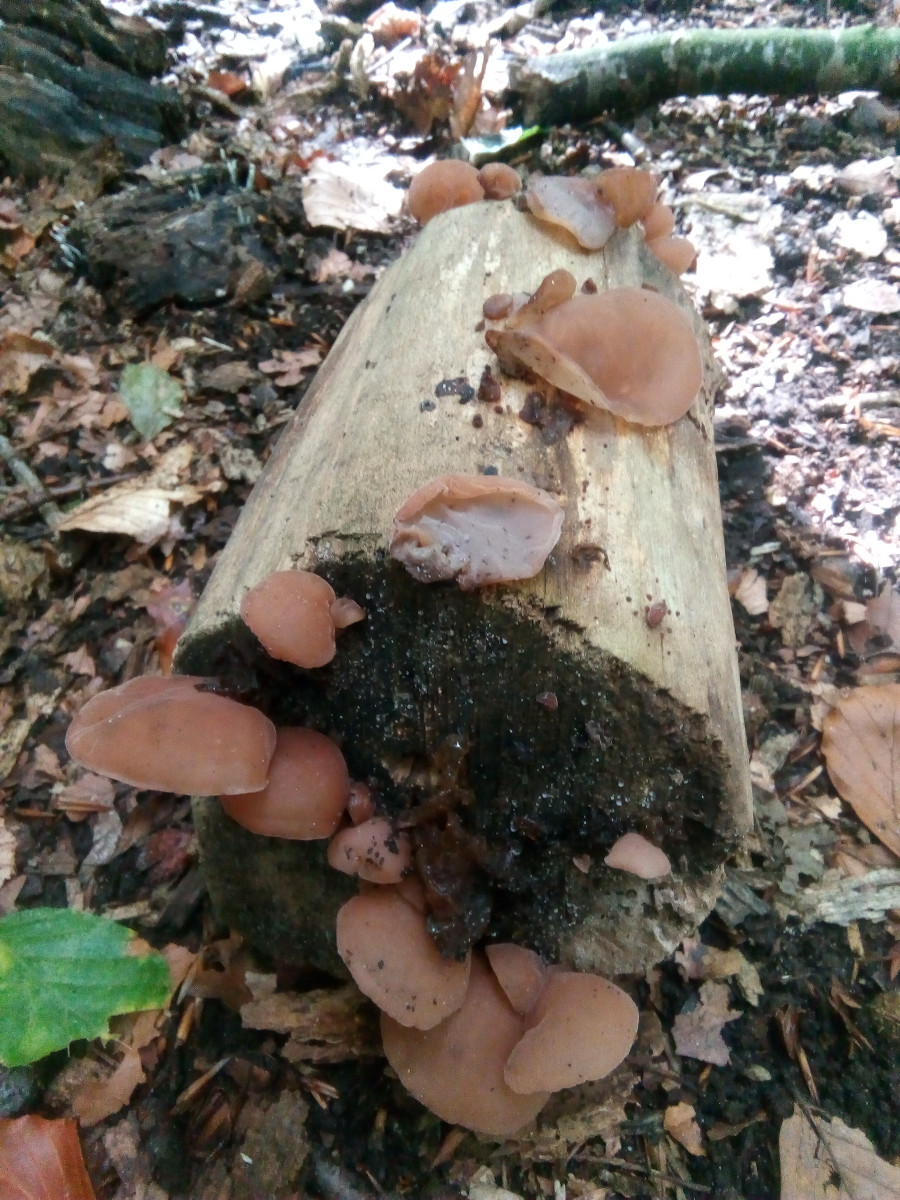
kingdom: Fungi
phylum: Basidiomycota
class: Agaricomycetes
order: Auriculariales
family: Auriculariaceae
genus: Auricularia
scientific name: Auricularia auricula-judae
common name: almindelig judasøre
